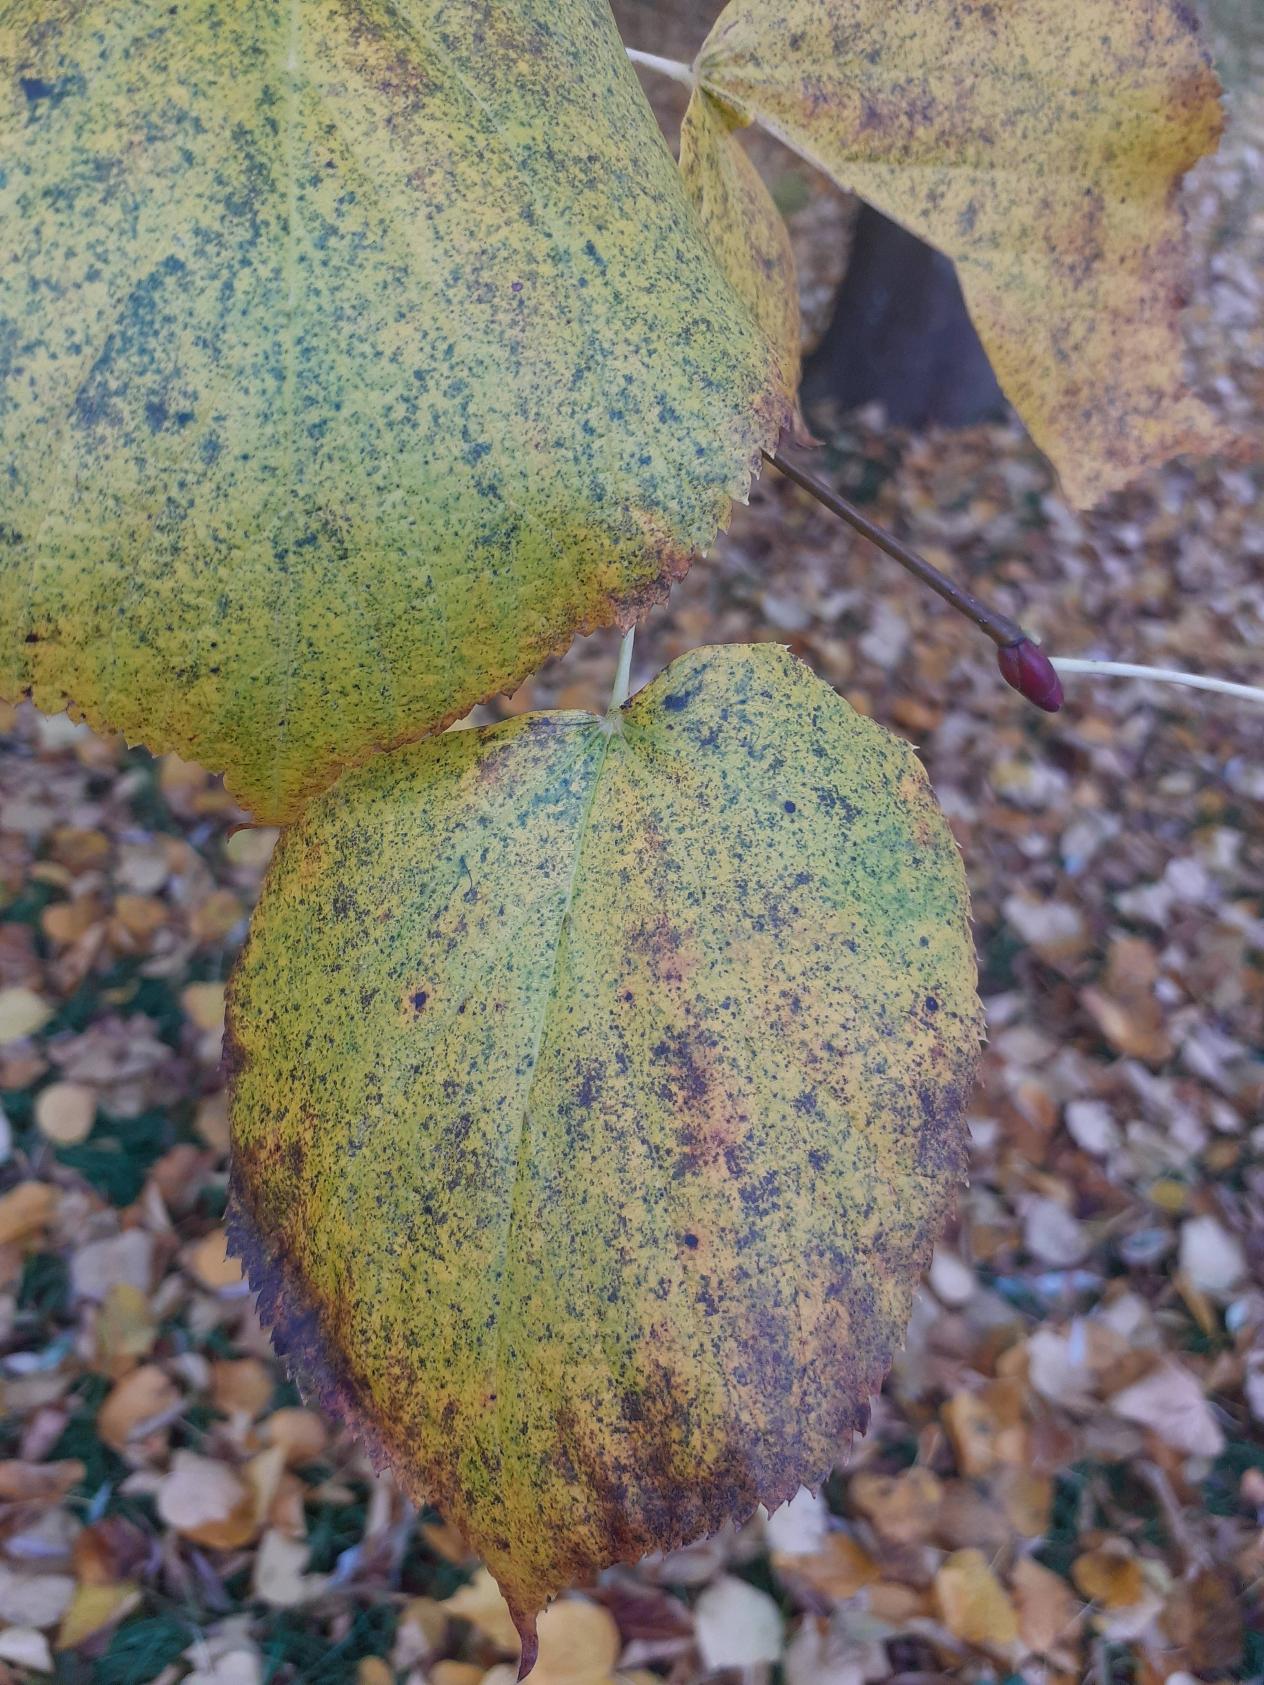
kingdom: Plantae
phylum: Tracheophyta
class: Magnoliopsida
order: Malvales
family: Malvaceae
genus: Tilia
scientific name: Tilia
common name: Lindeslægten
